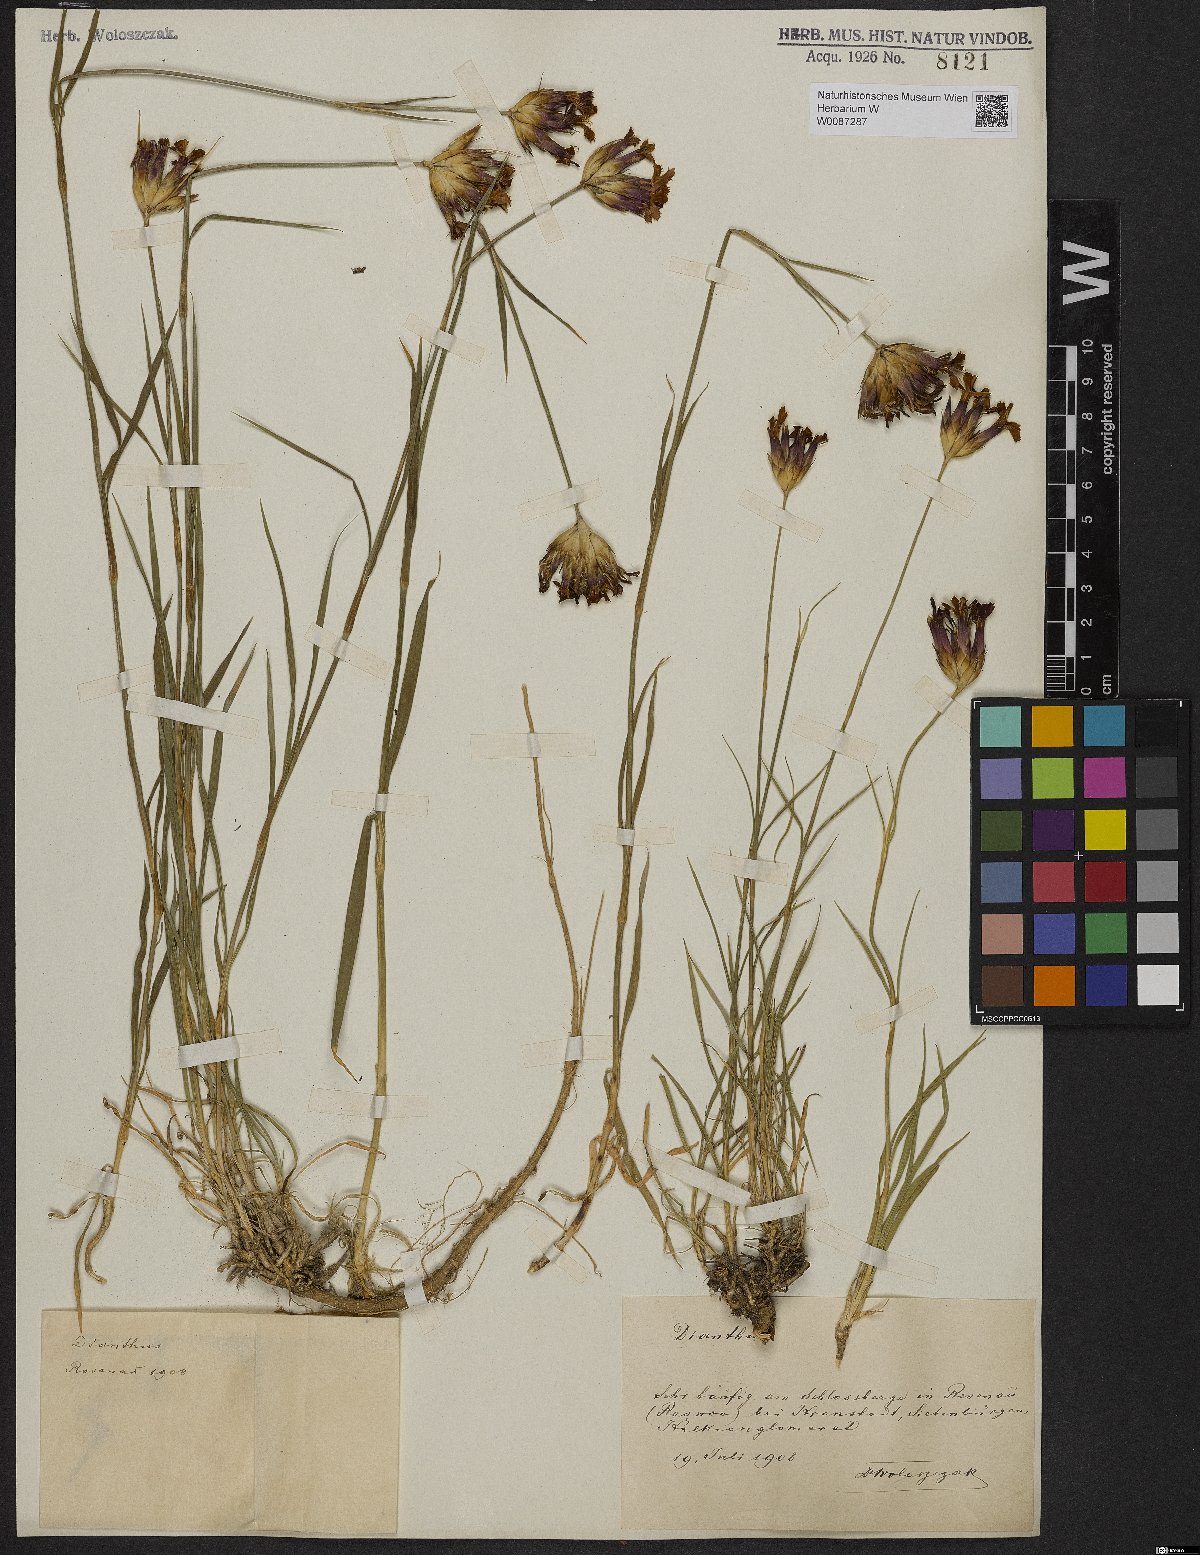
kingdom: Plantae
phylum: Tracheophyta
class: Magnoliopsida
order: Caryophyllales
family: Caryophyllaceae
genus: Dianthus
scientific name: Dianthus giganteus
